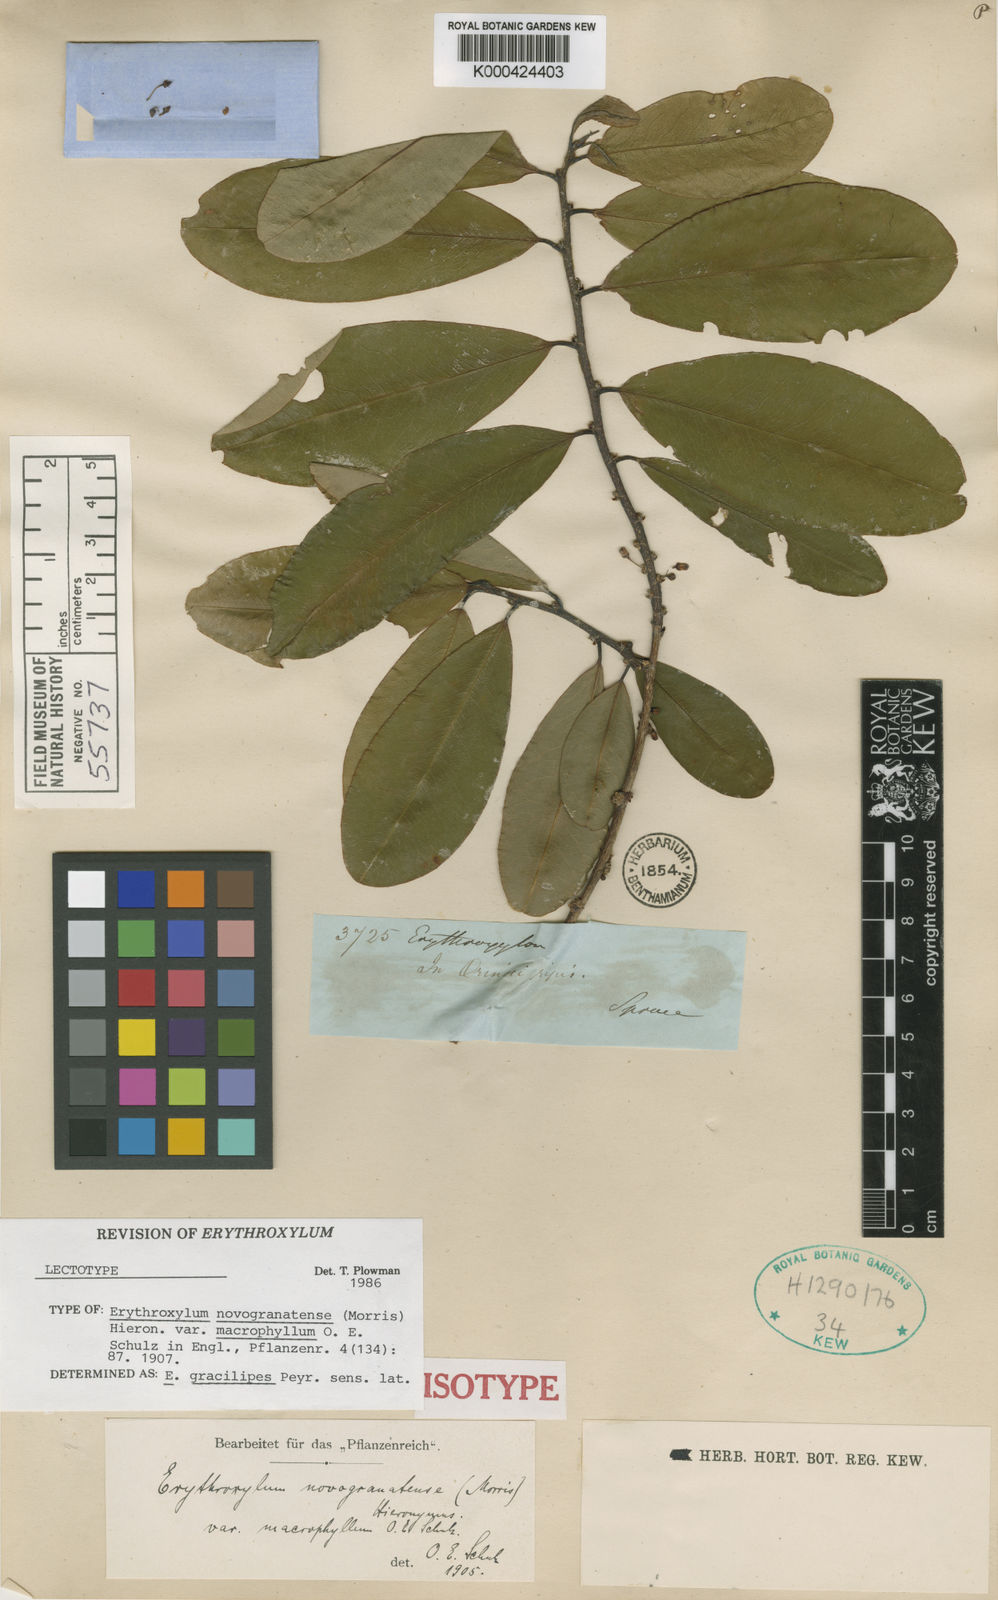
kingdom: Plantae
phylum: Tracheophyta
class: Magnoliopsida
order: Malpighiales
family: Erythroxylaceae
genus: Erythroxylum
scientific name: Erythroxylum gracilipes
